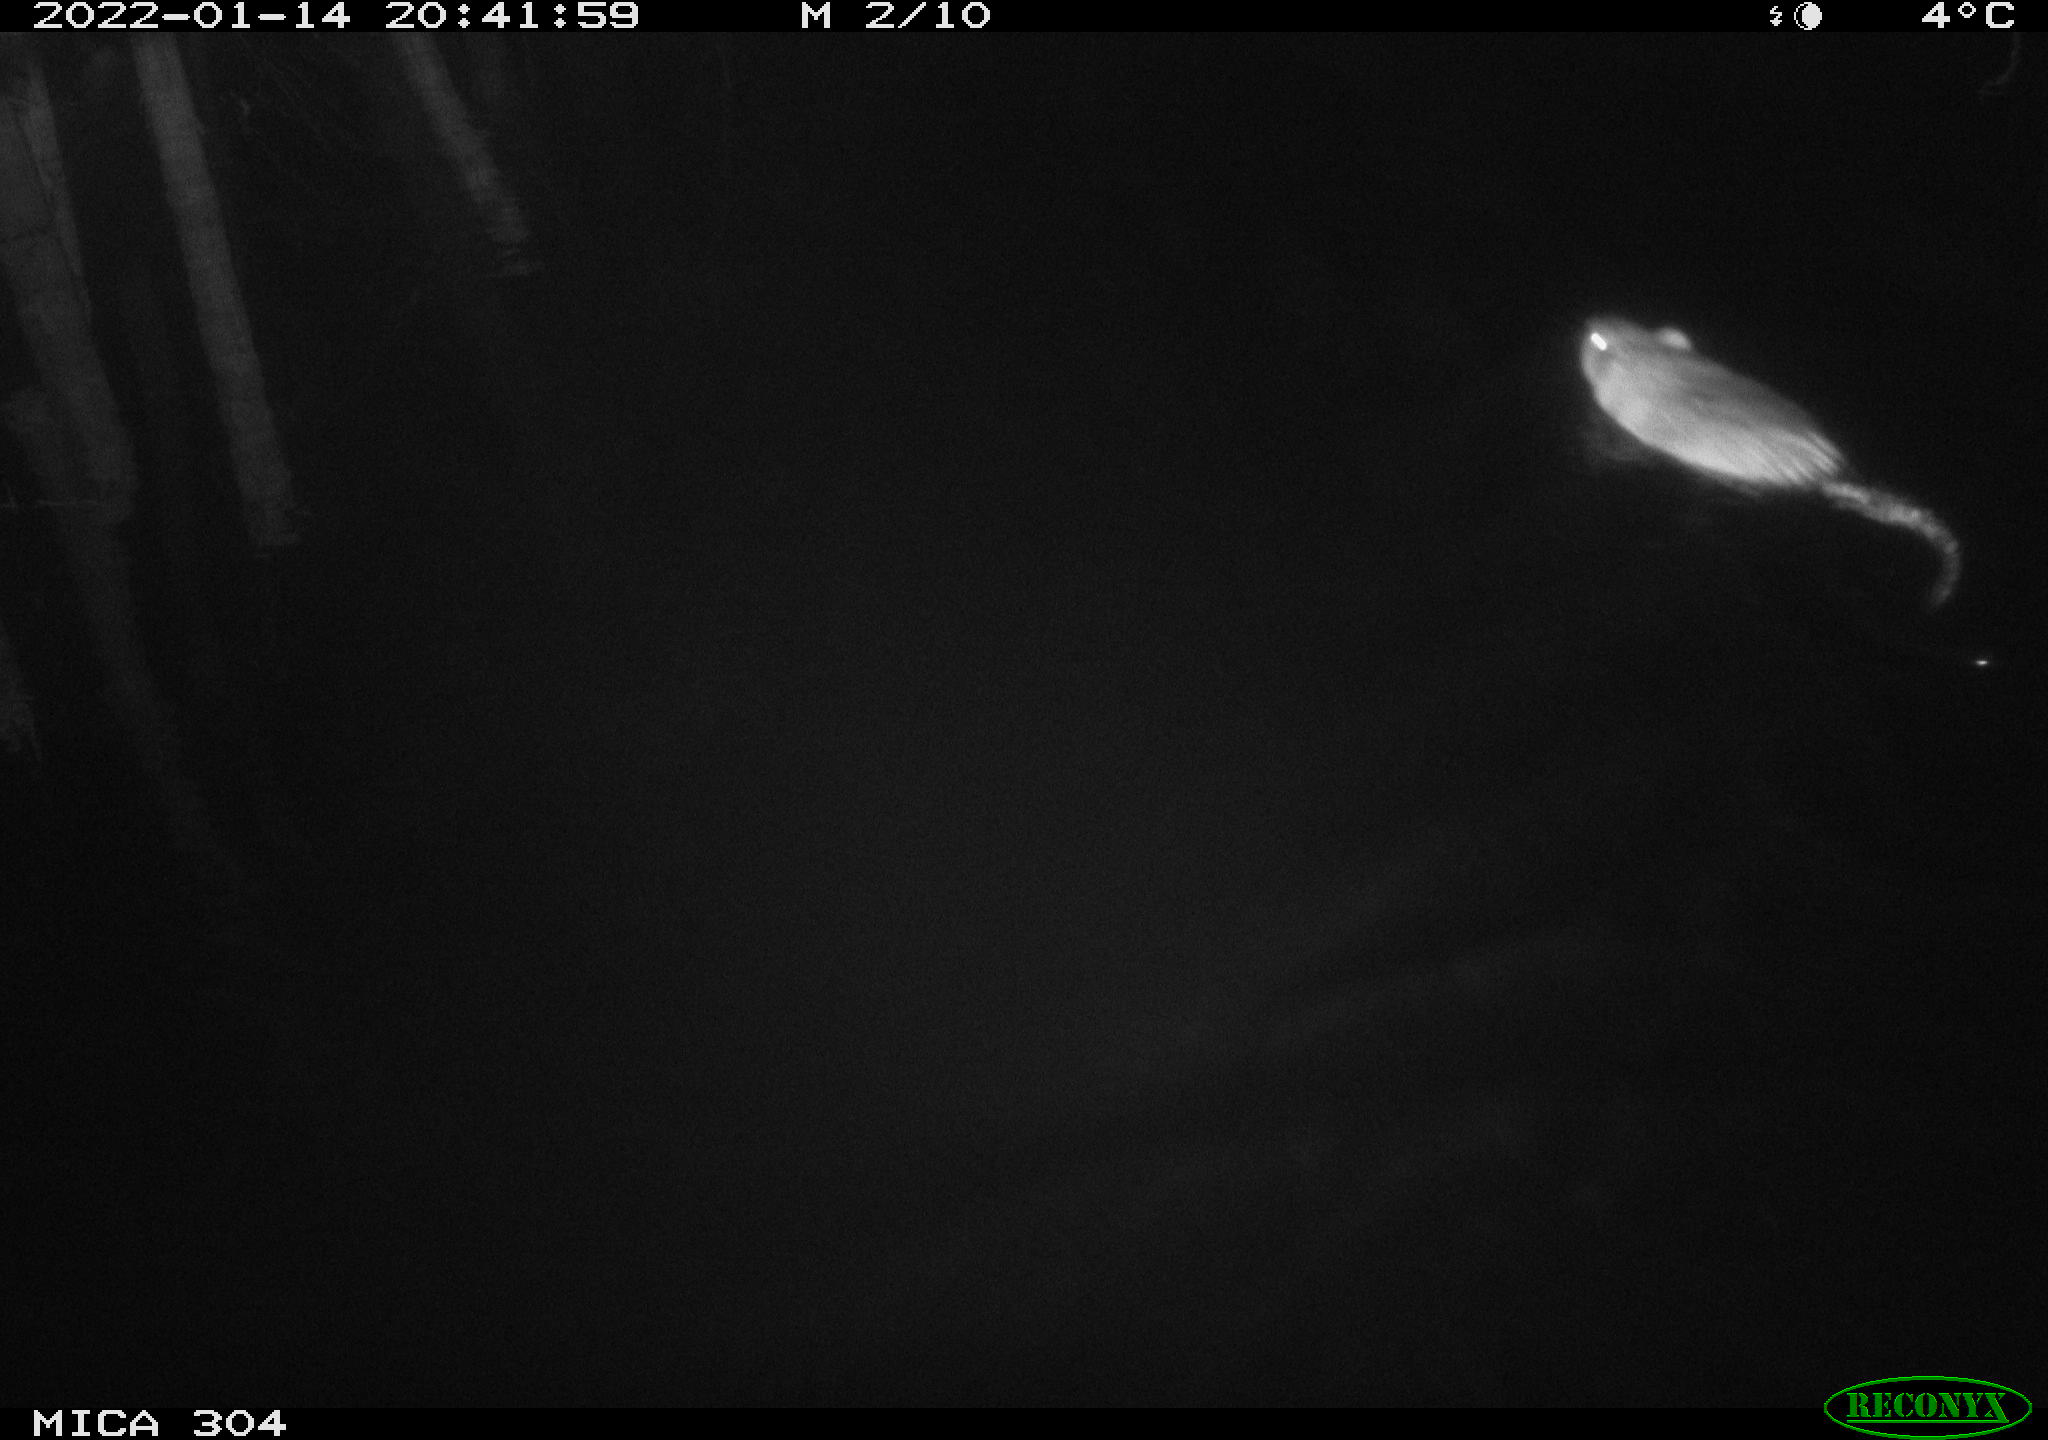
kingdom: Animalia
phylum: Chordata
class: Mammalia
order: Rodentia
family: Cricetidae
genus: Ondatra
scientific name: Ondatra zibethicus
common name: Muskrat
